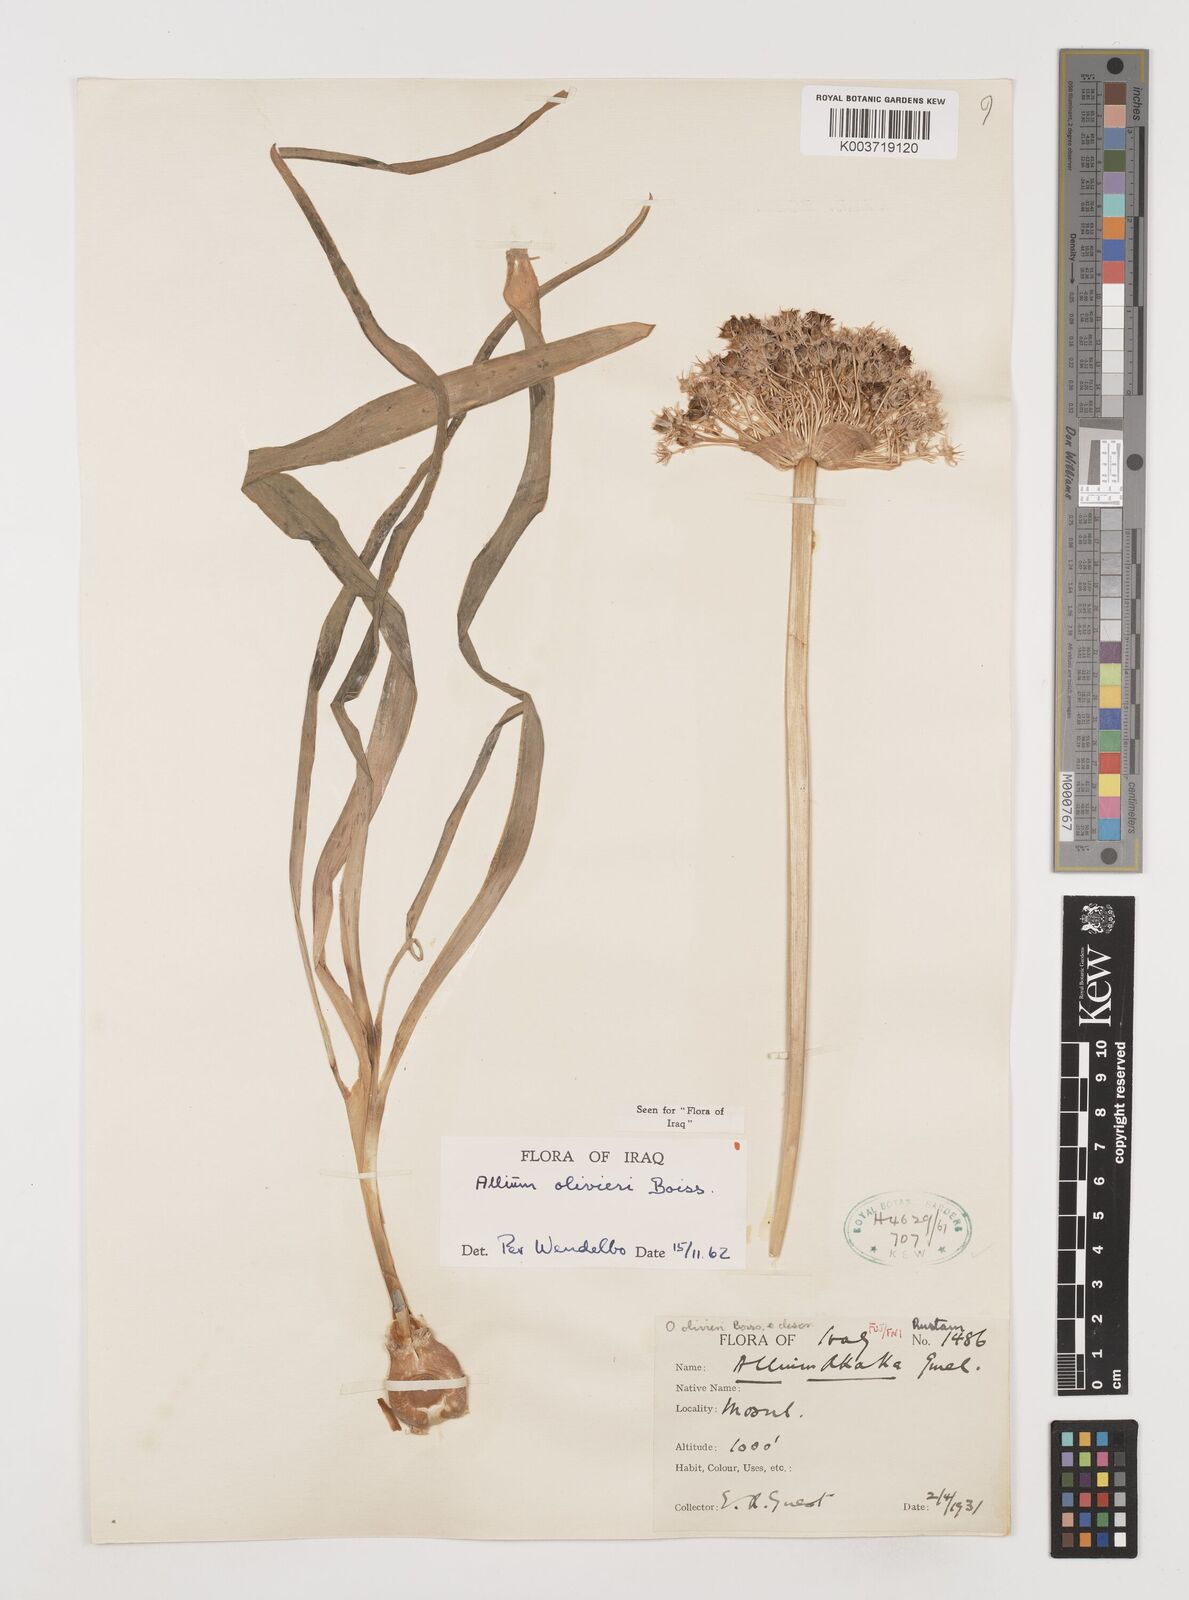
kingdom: Plantae
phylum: Tracheophyta
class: Liliopsida
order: Asparagales
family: Amaryllidaceae
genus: Allium
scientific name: Allium olivieri
